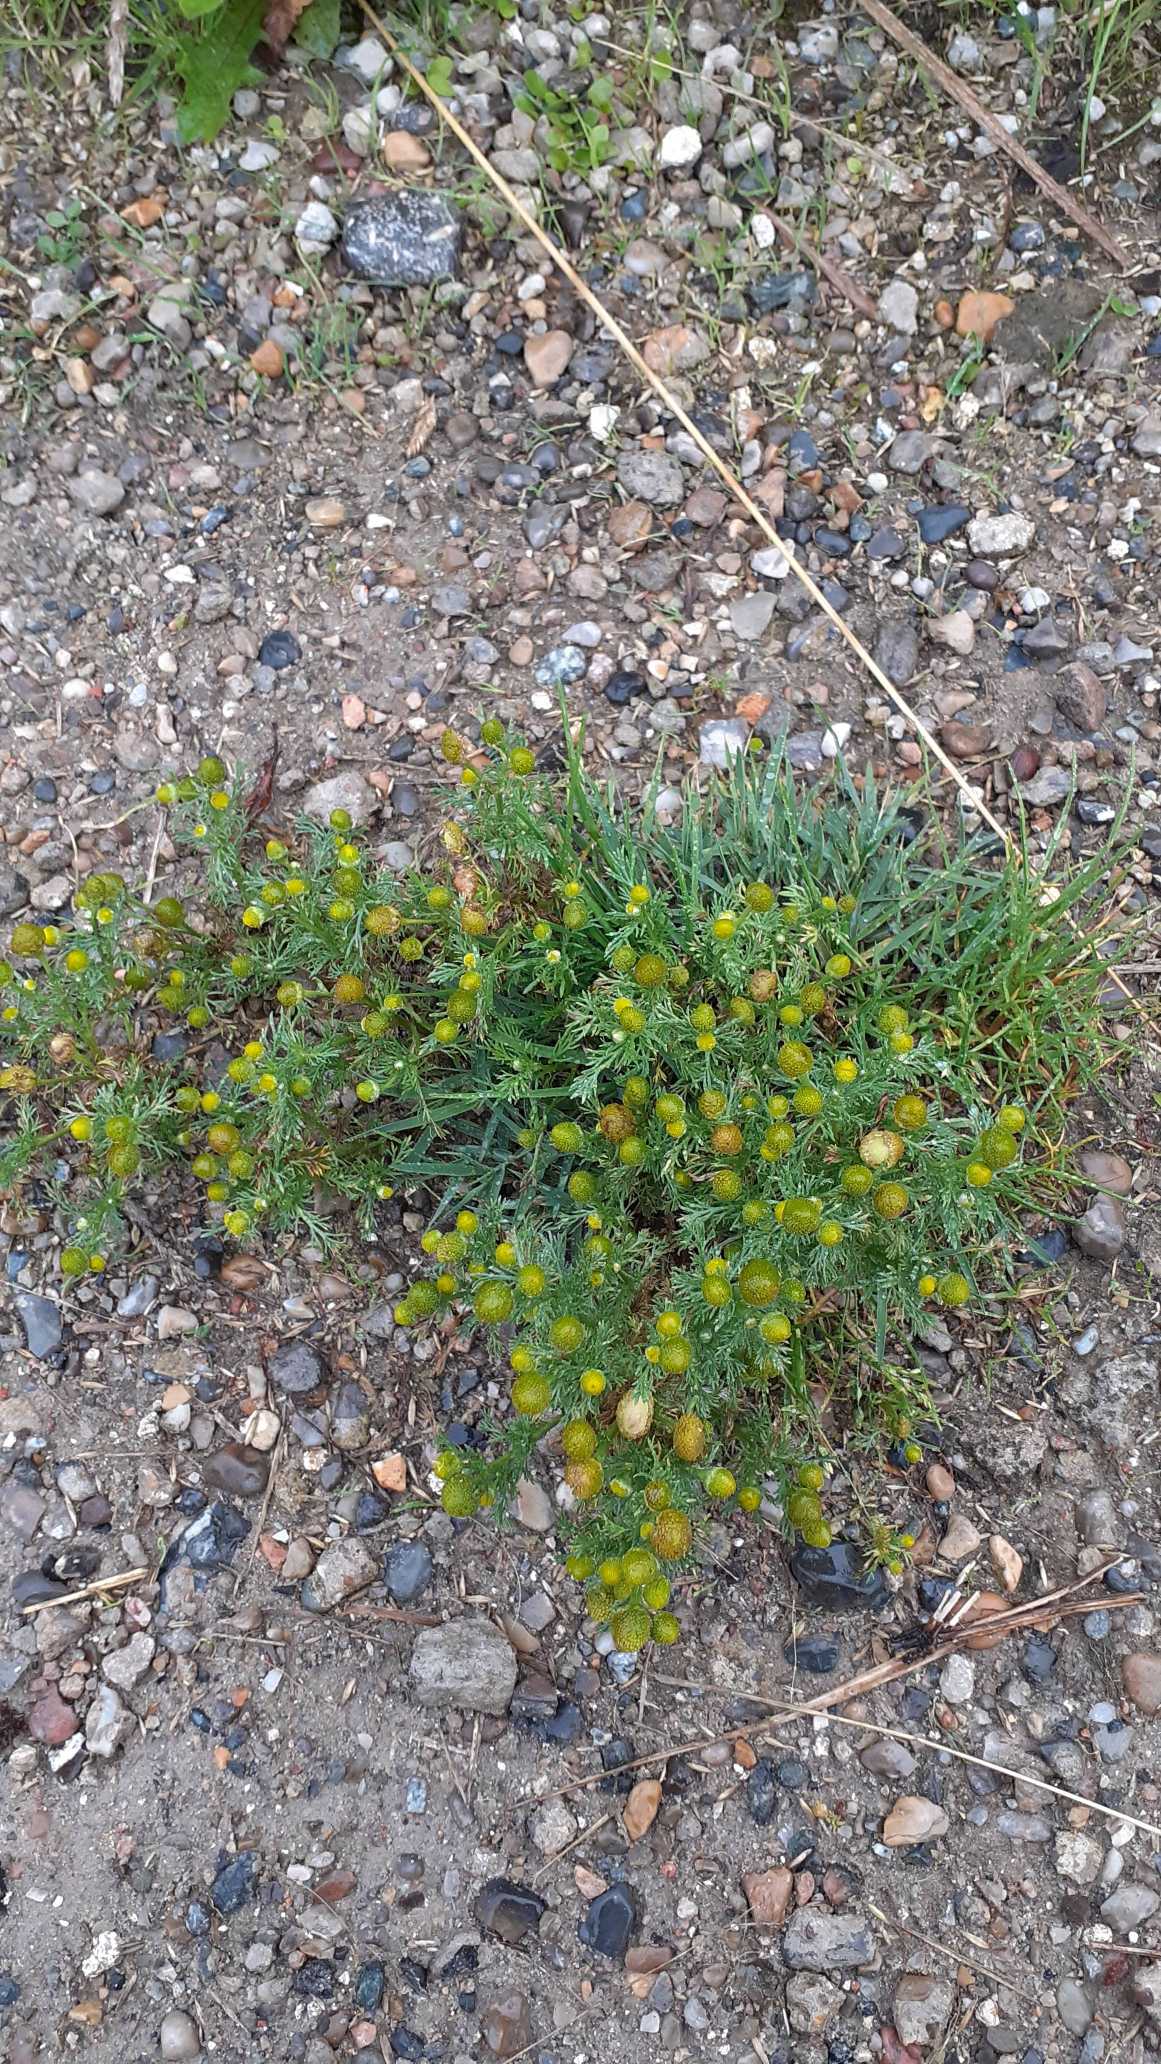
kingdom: Plantae
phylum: Tracheophyta
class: Magnoliopsida
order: Asterales
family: Asteraceae
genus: Matricaria
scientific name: Matricaria discoidea
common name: Skive-kamille
